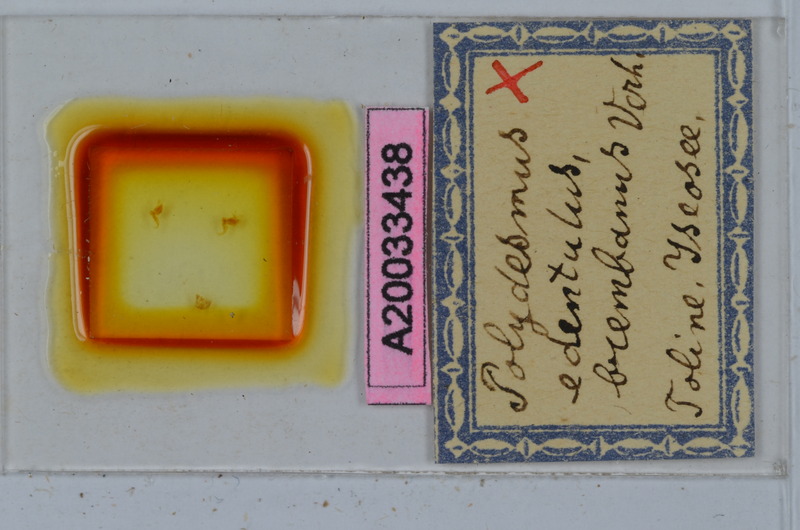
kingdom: Animalia
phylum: Arthropoda
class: Diplopoda
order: Polydesmida
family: Polydesmidae
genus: Polydesmus
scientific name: Polydesmus edentulus
